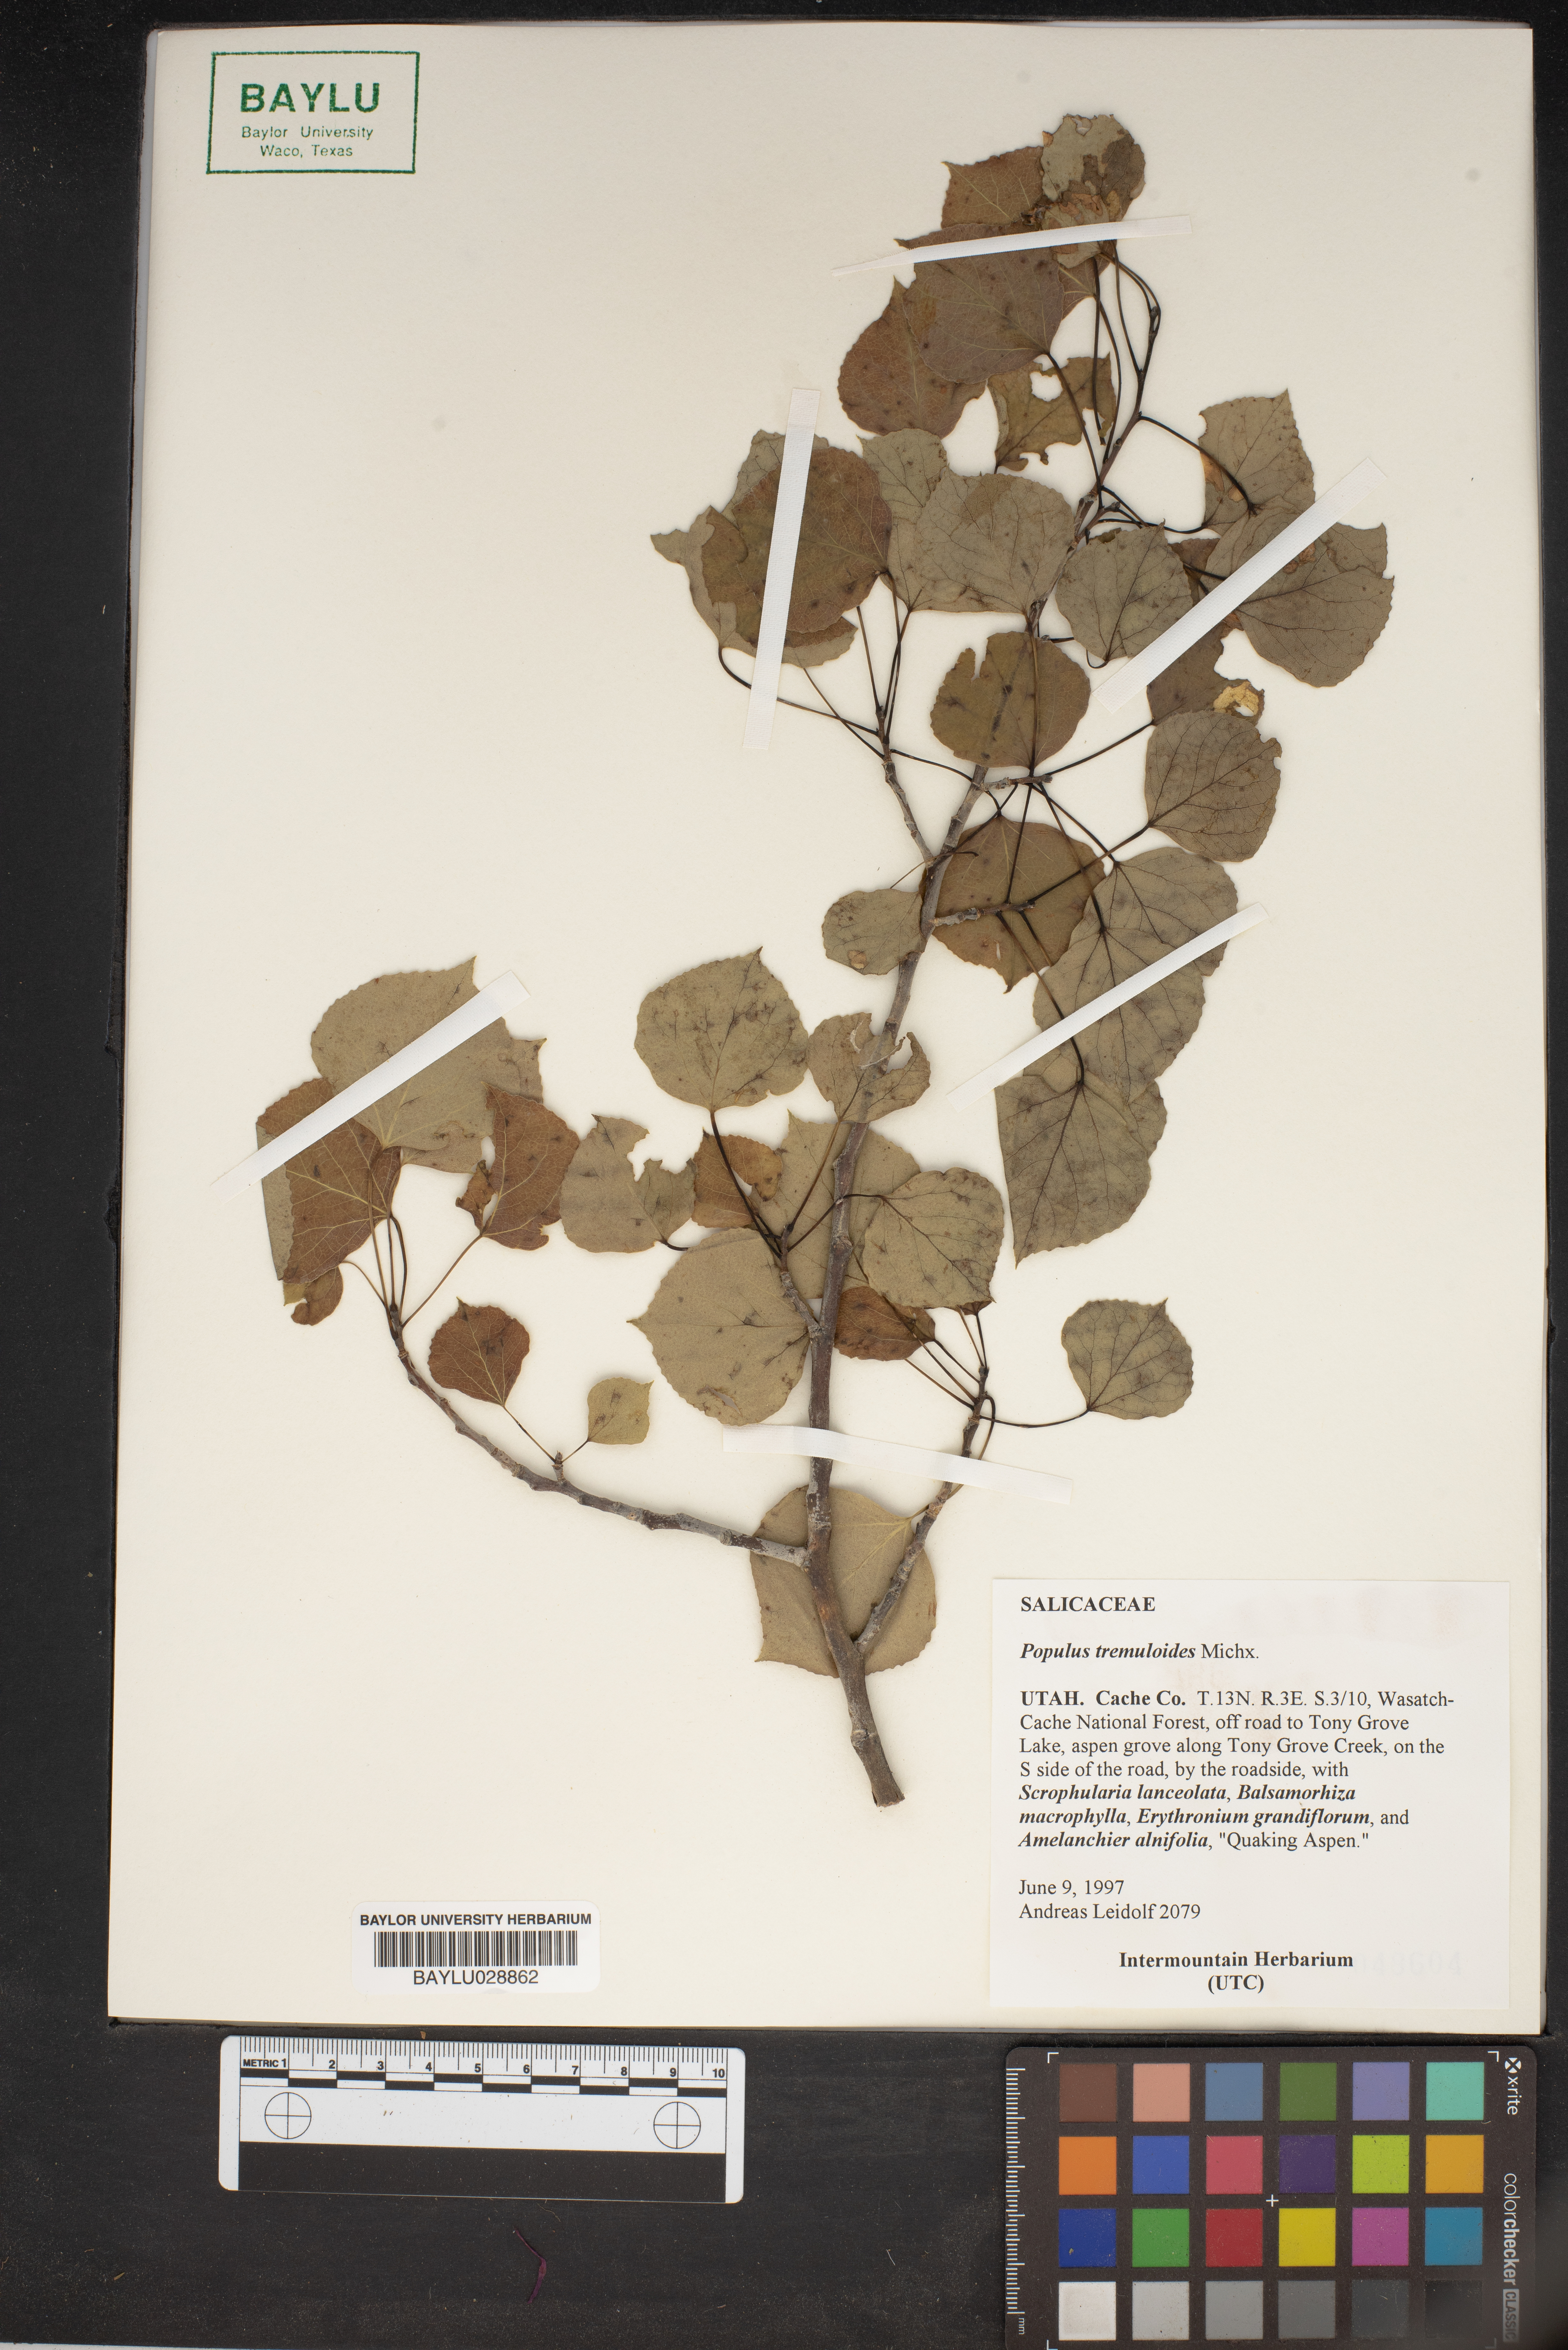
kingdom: Plantae
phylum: Tracheophyta
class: Magnoliopsida
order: Malpighiales
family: Salicaceae
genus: Populus
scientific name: Populus tremuloides
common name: Quaking aspen
